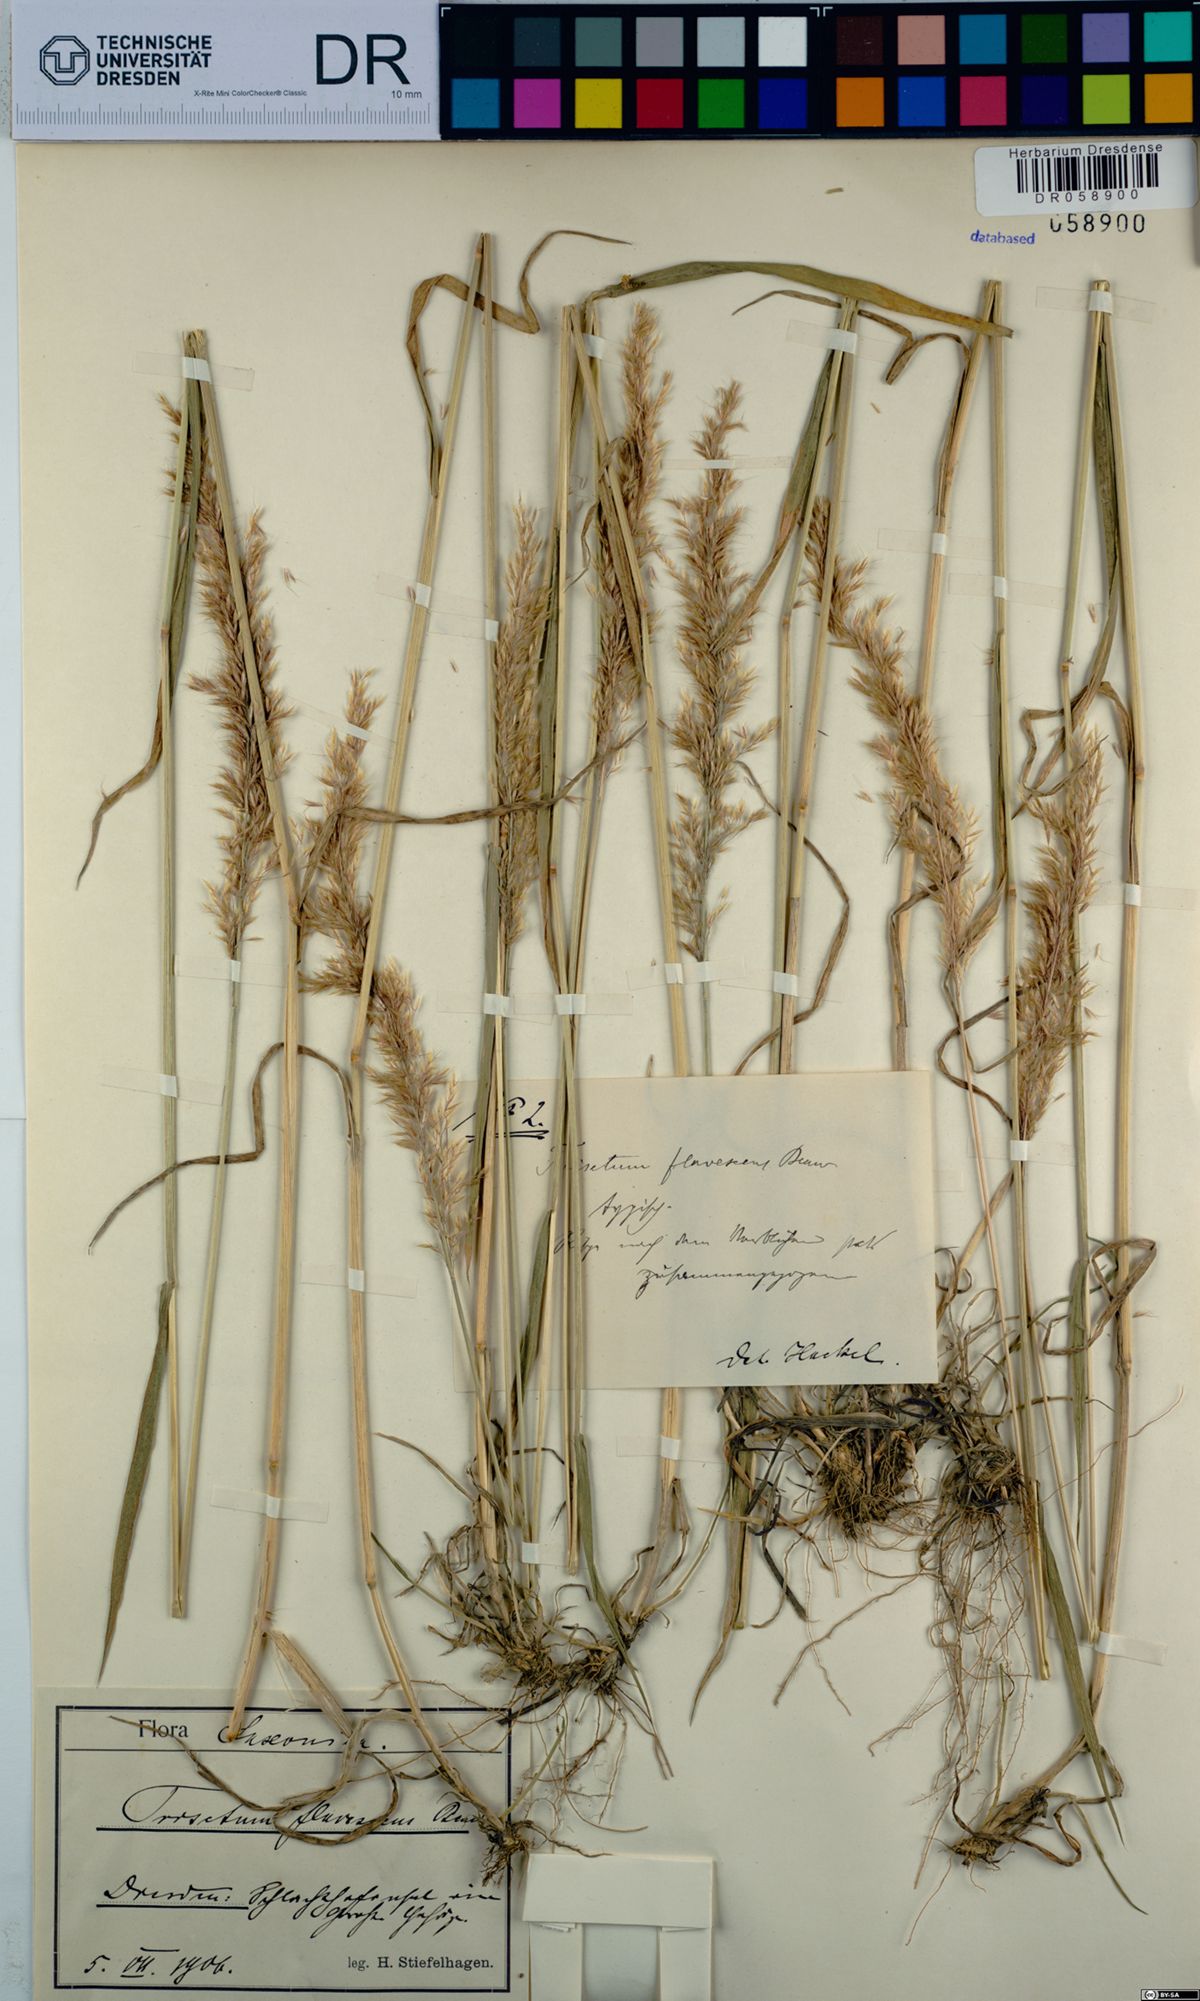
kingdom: Plantae
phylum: Tracheophyta
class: Liliopsida
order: Poales
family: Poaceae
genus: Trisetum
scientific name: Trisetum flavescens
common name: Yellow oat-grass
